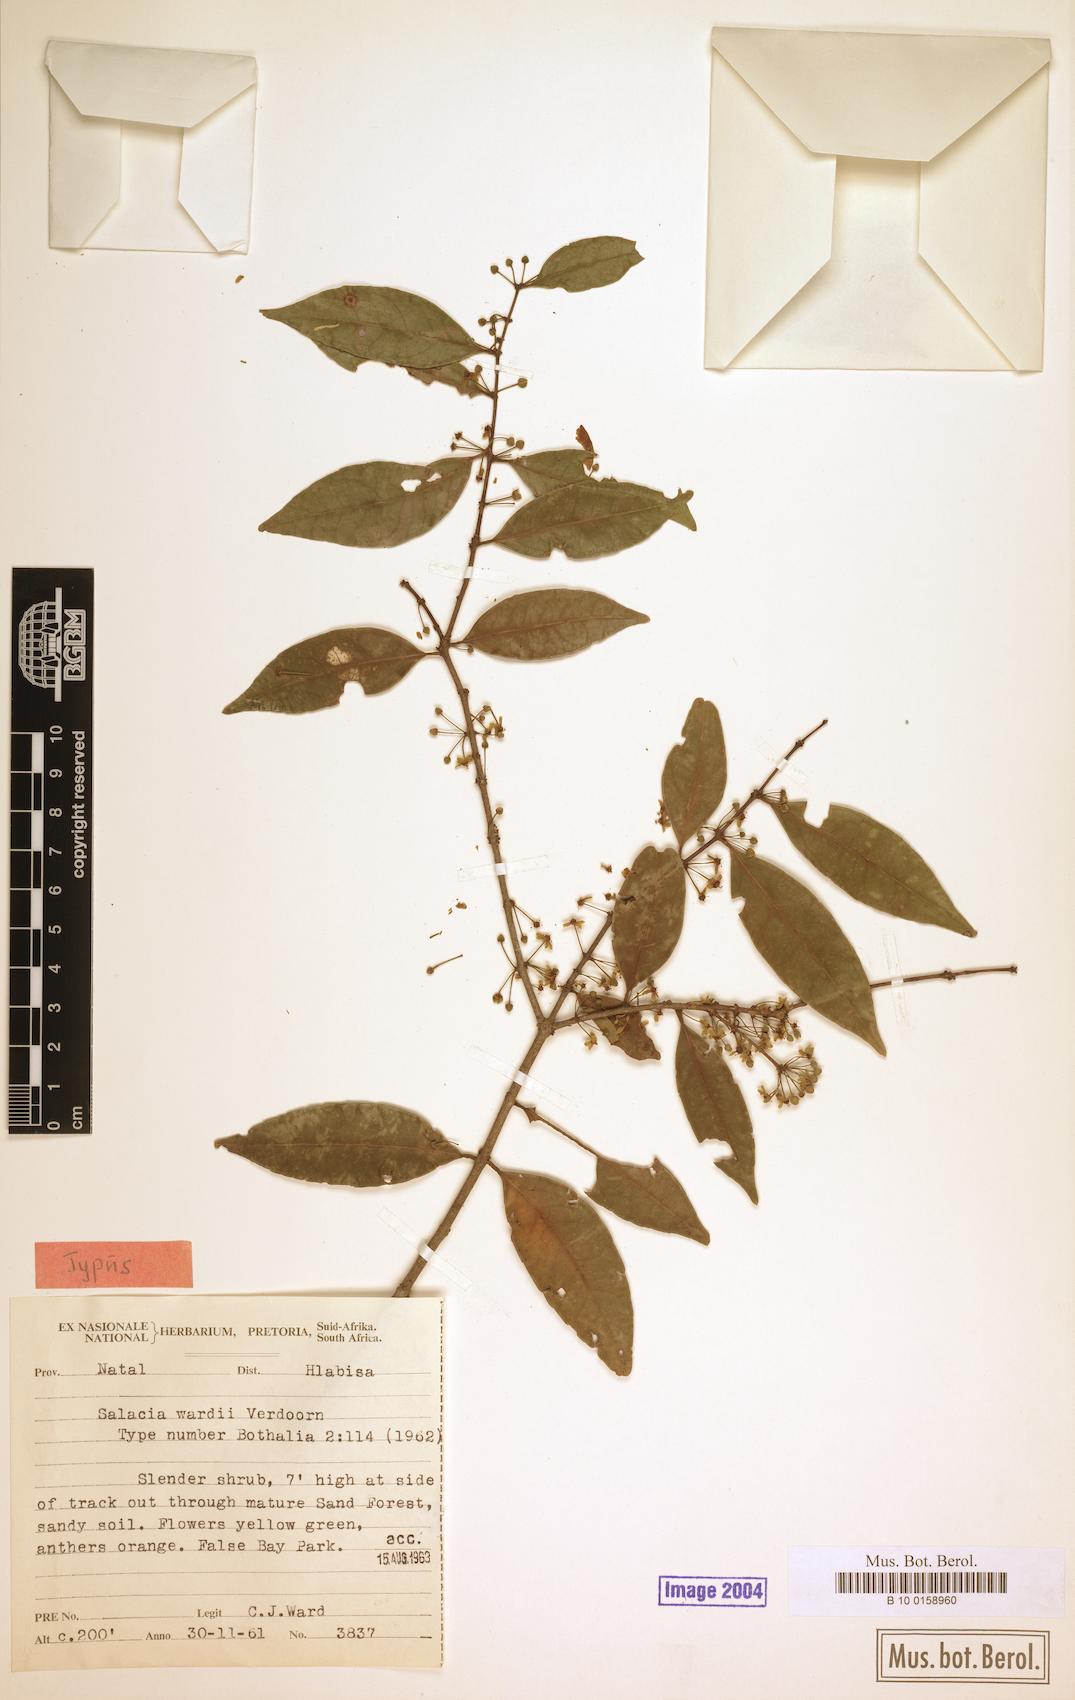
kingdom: Plantae
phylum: Tracheophyta
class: Magnoliopsida
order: Celastrales
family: Celastraceae
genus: Salacia
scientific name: Salacia leptoclada
